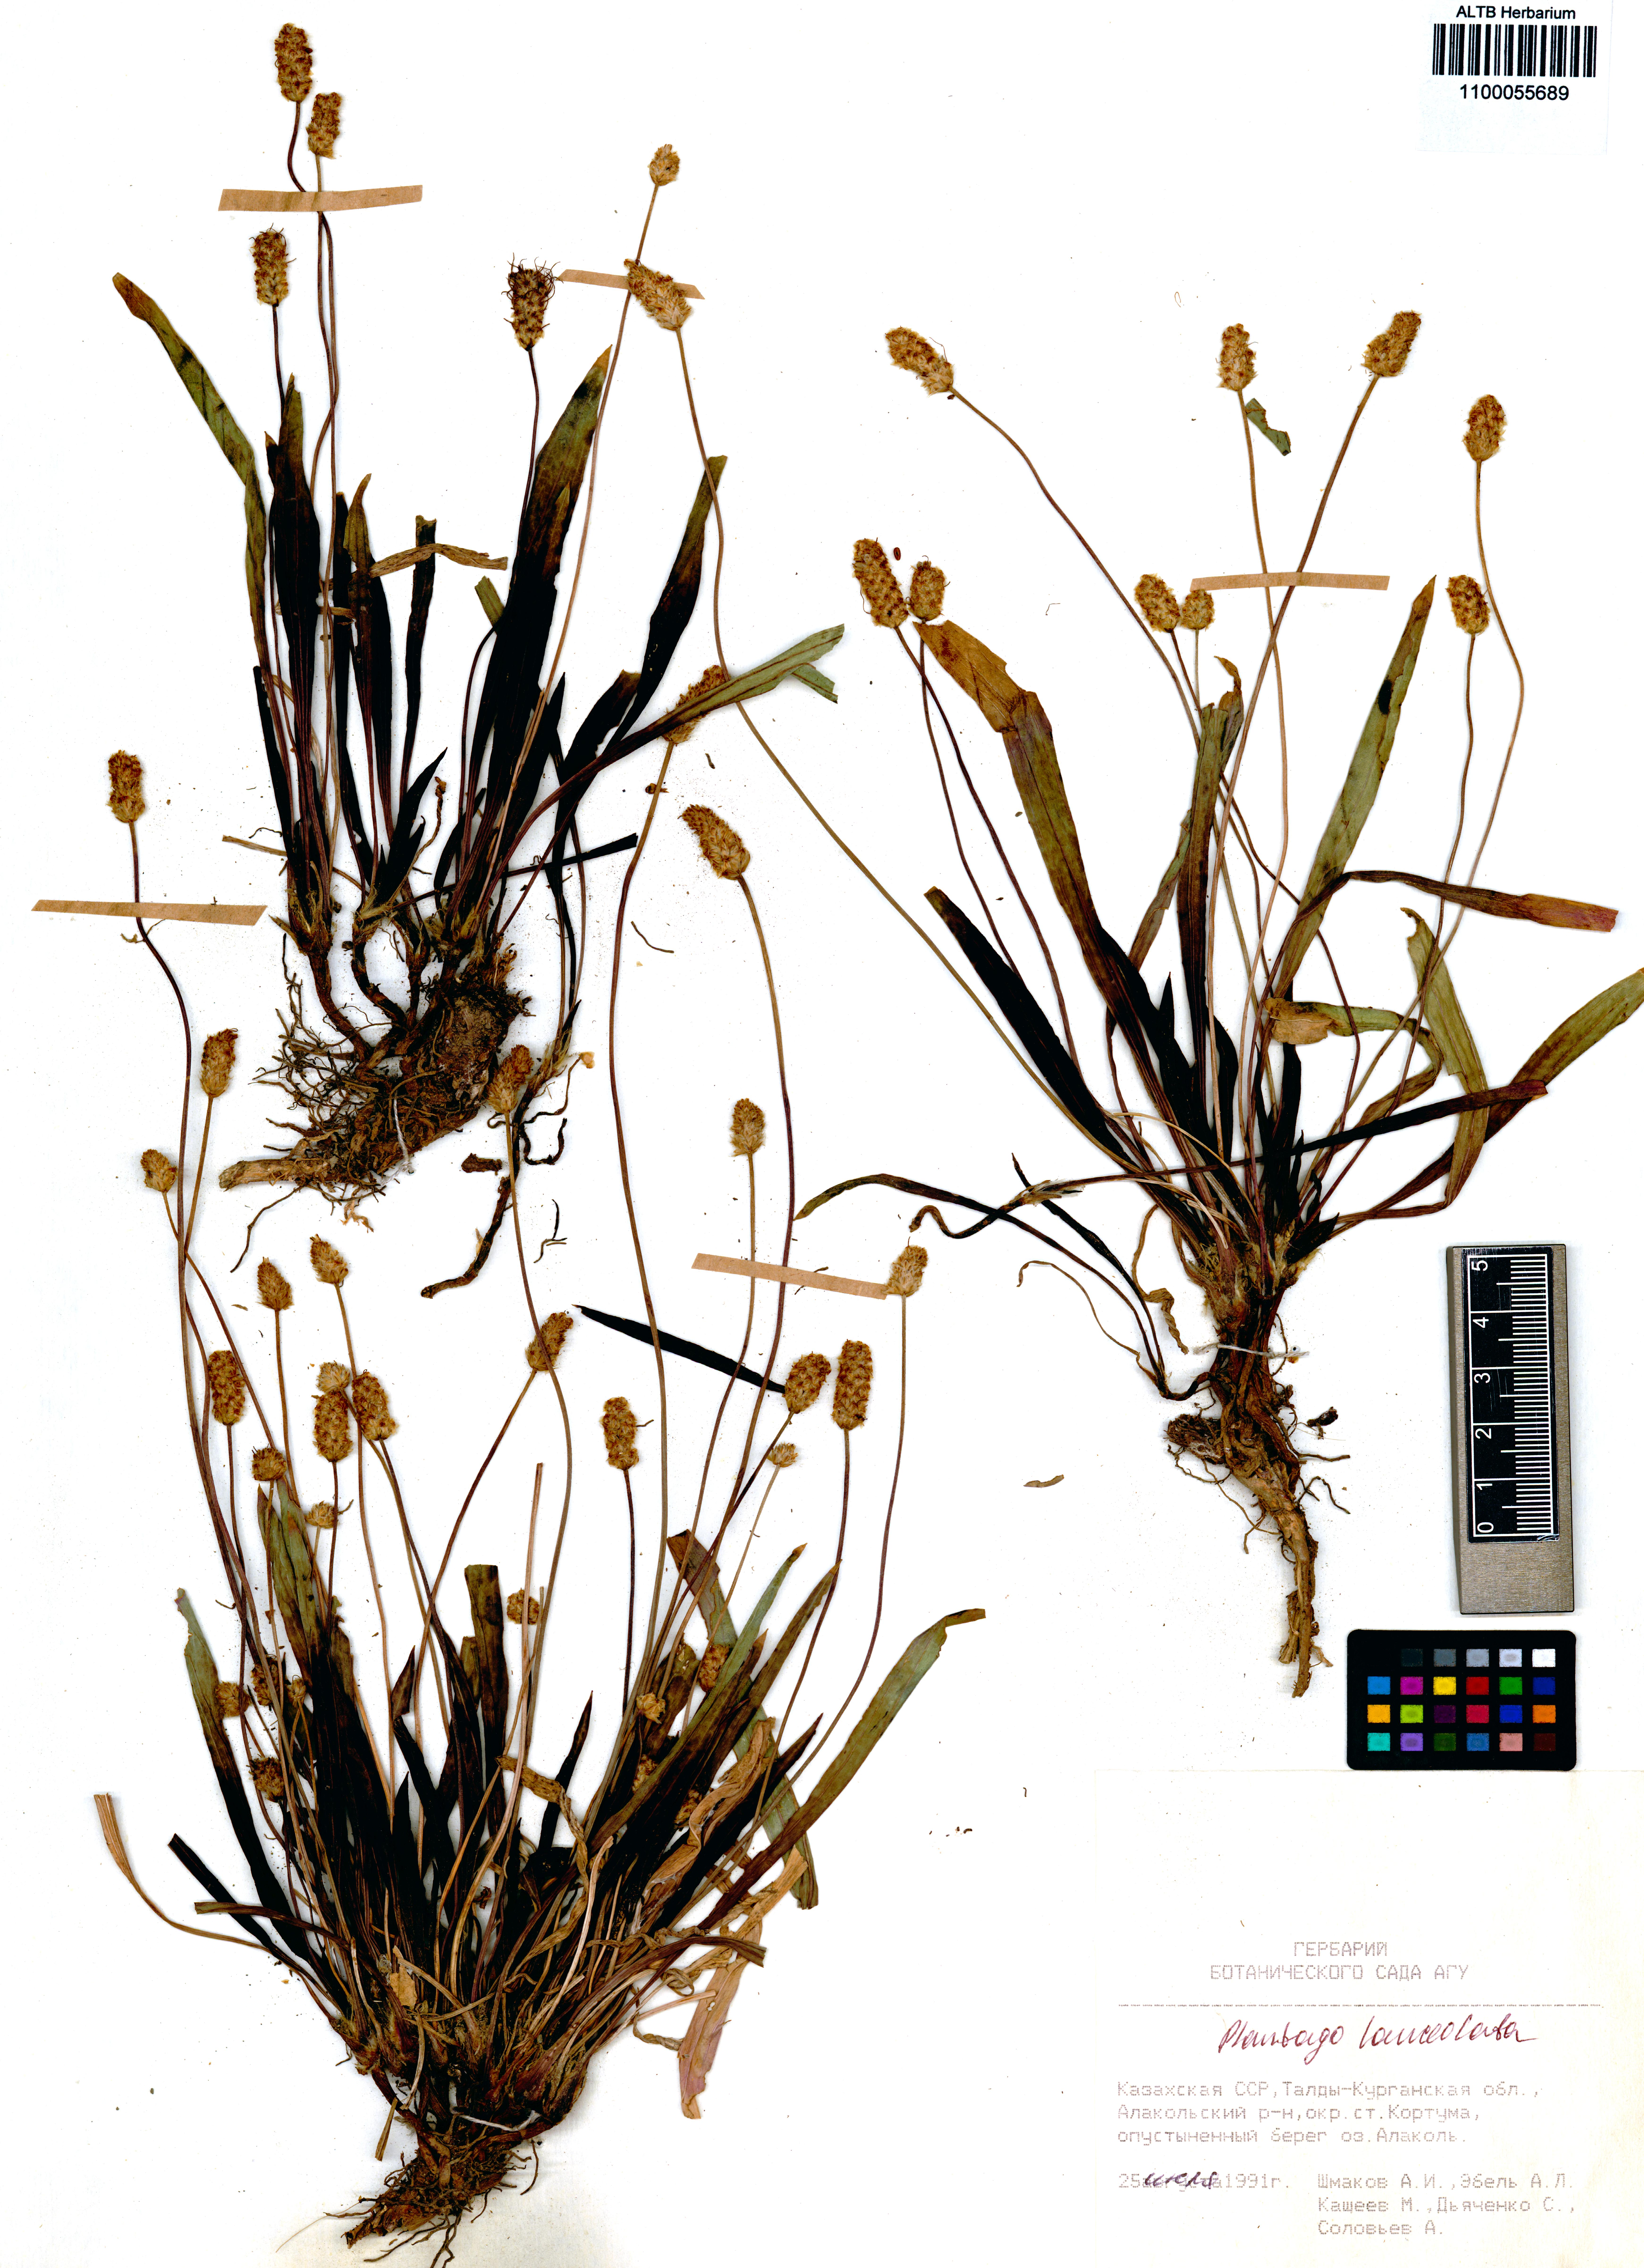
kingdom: Plantae
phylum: Tracheophyta
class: Magnoliopsida
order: Lamiales
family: Plantaginaceae
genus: Plantago
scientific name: Plantago lanceolata
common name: Ribwort plantain
